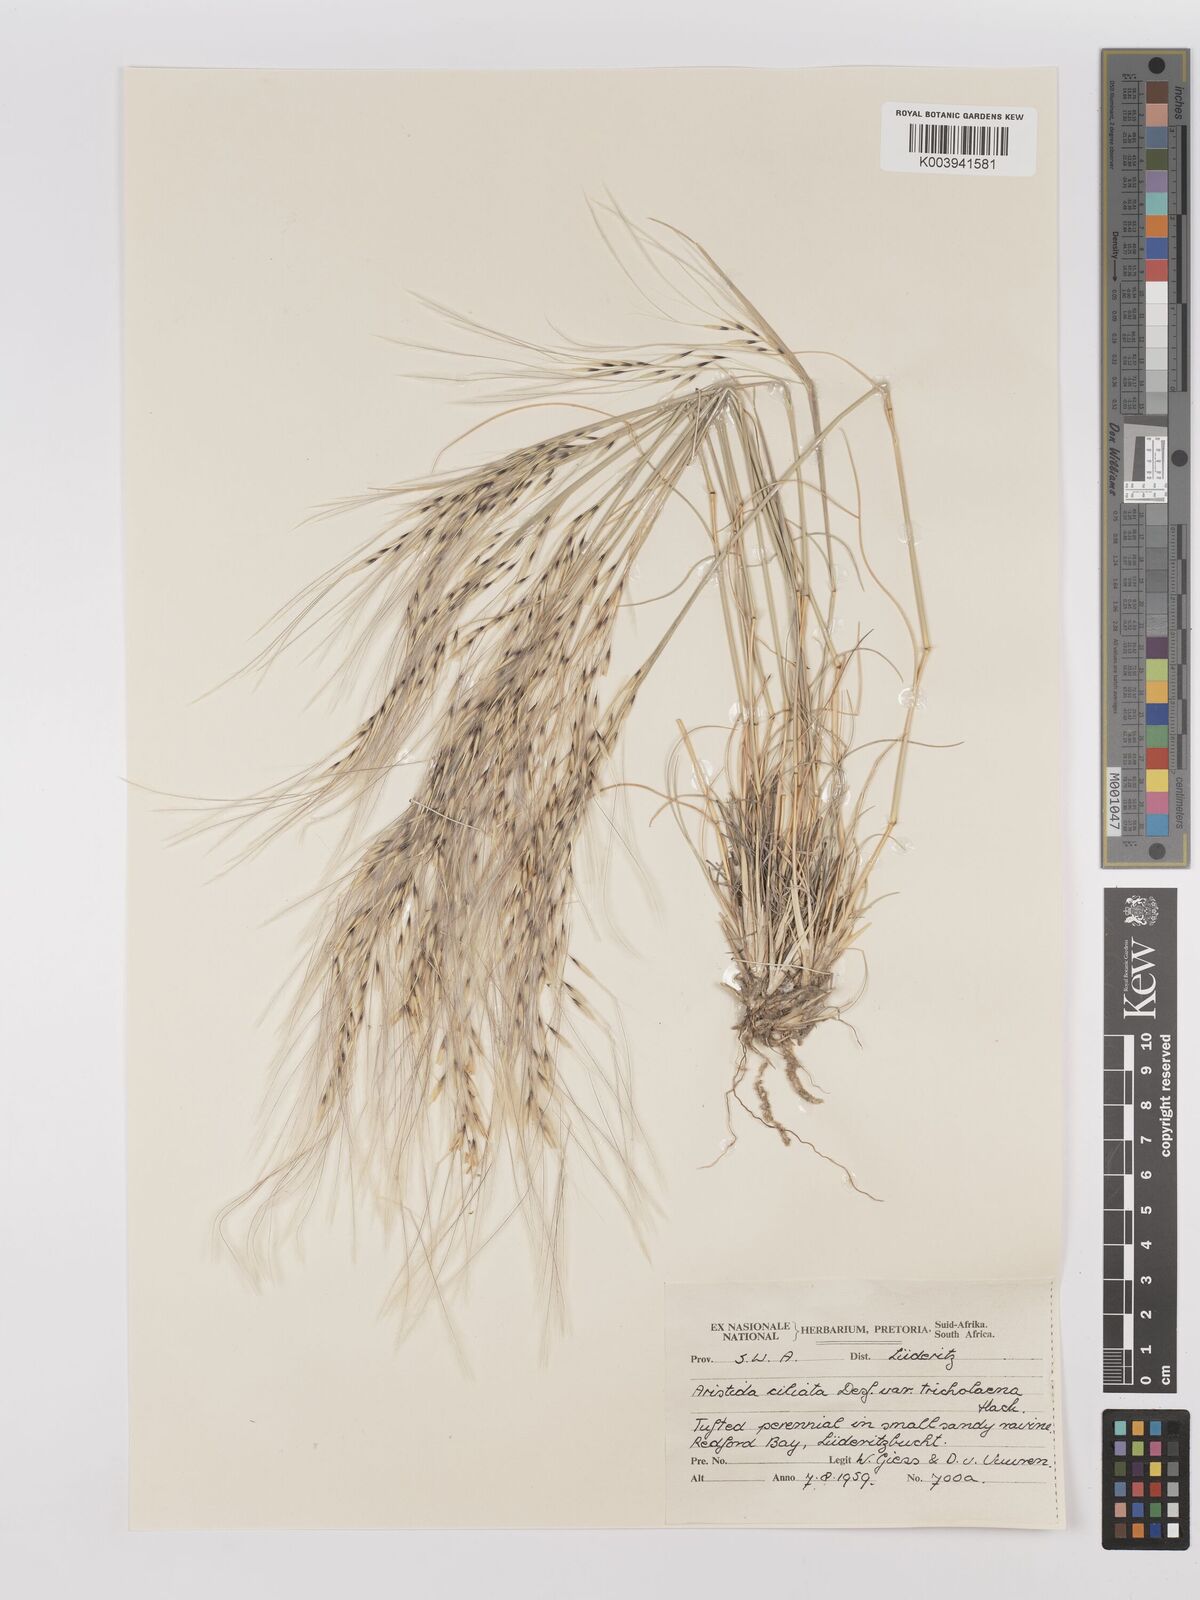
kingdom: Plantae
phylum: Tracheophyta
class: Liliopsida
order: Poales
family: Poaceae
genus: Stipagrostis
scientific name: Stipagrostis ciliata
